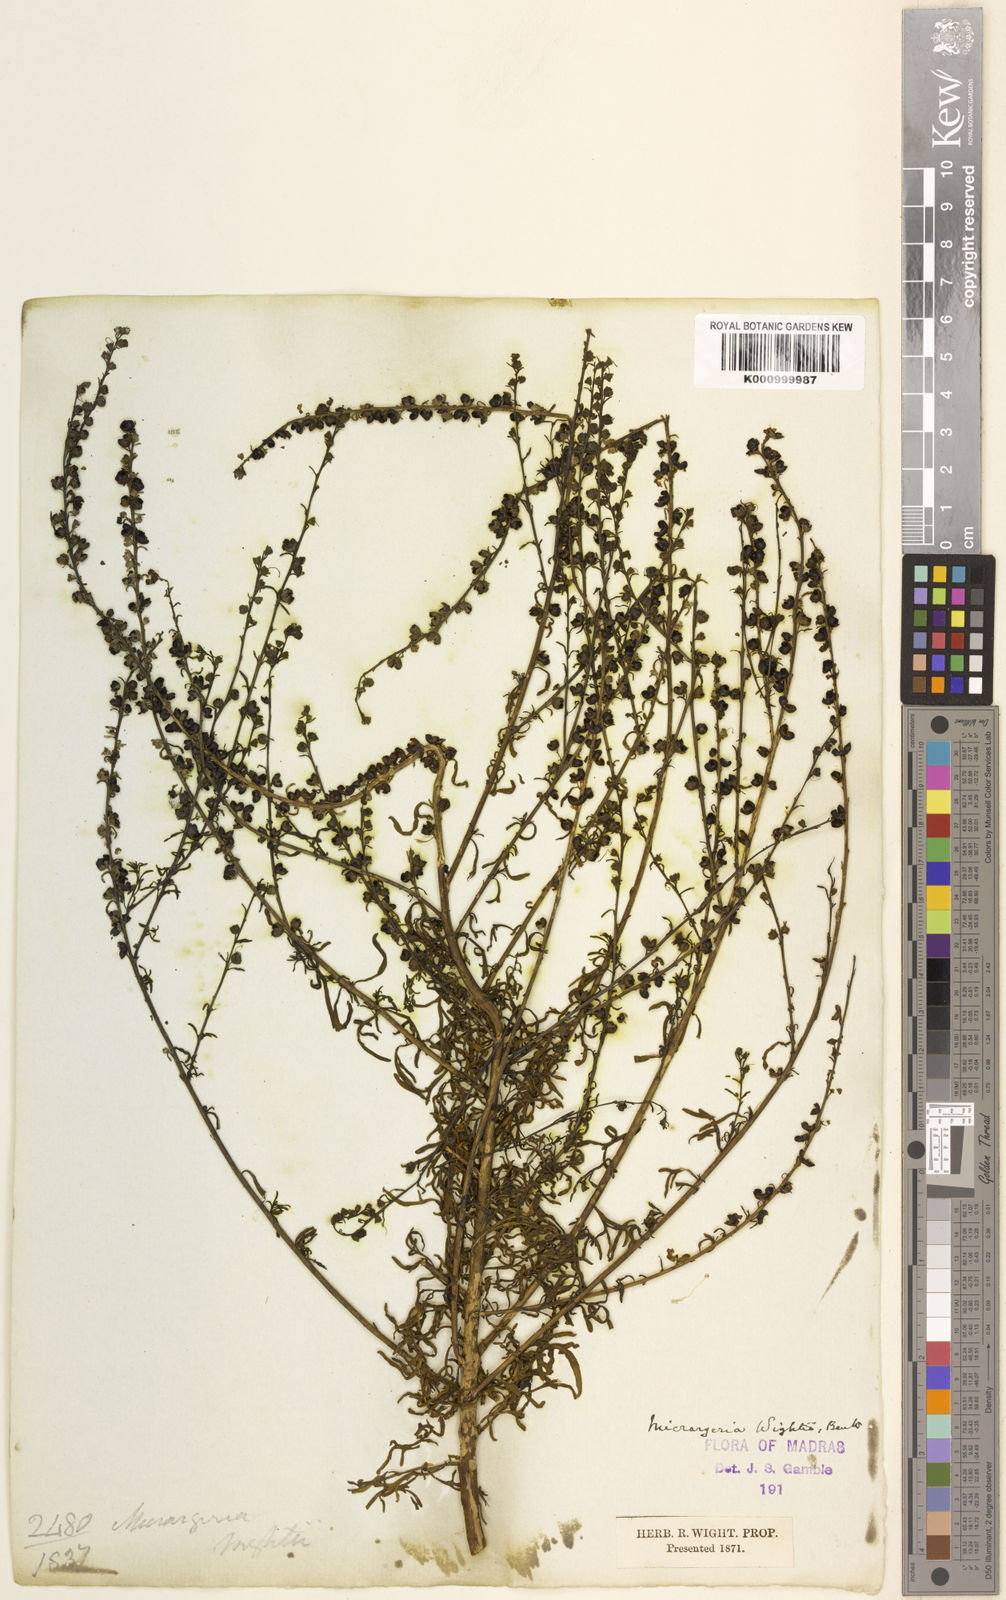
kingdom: Plantae
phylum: Tracheophyta
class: Magnoliopsida
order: Lamiales
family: Orobanchaceae
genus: Micrargeria
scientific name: Micrargeria wightii
